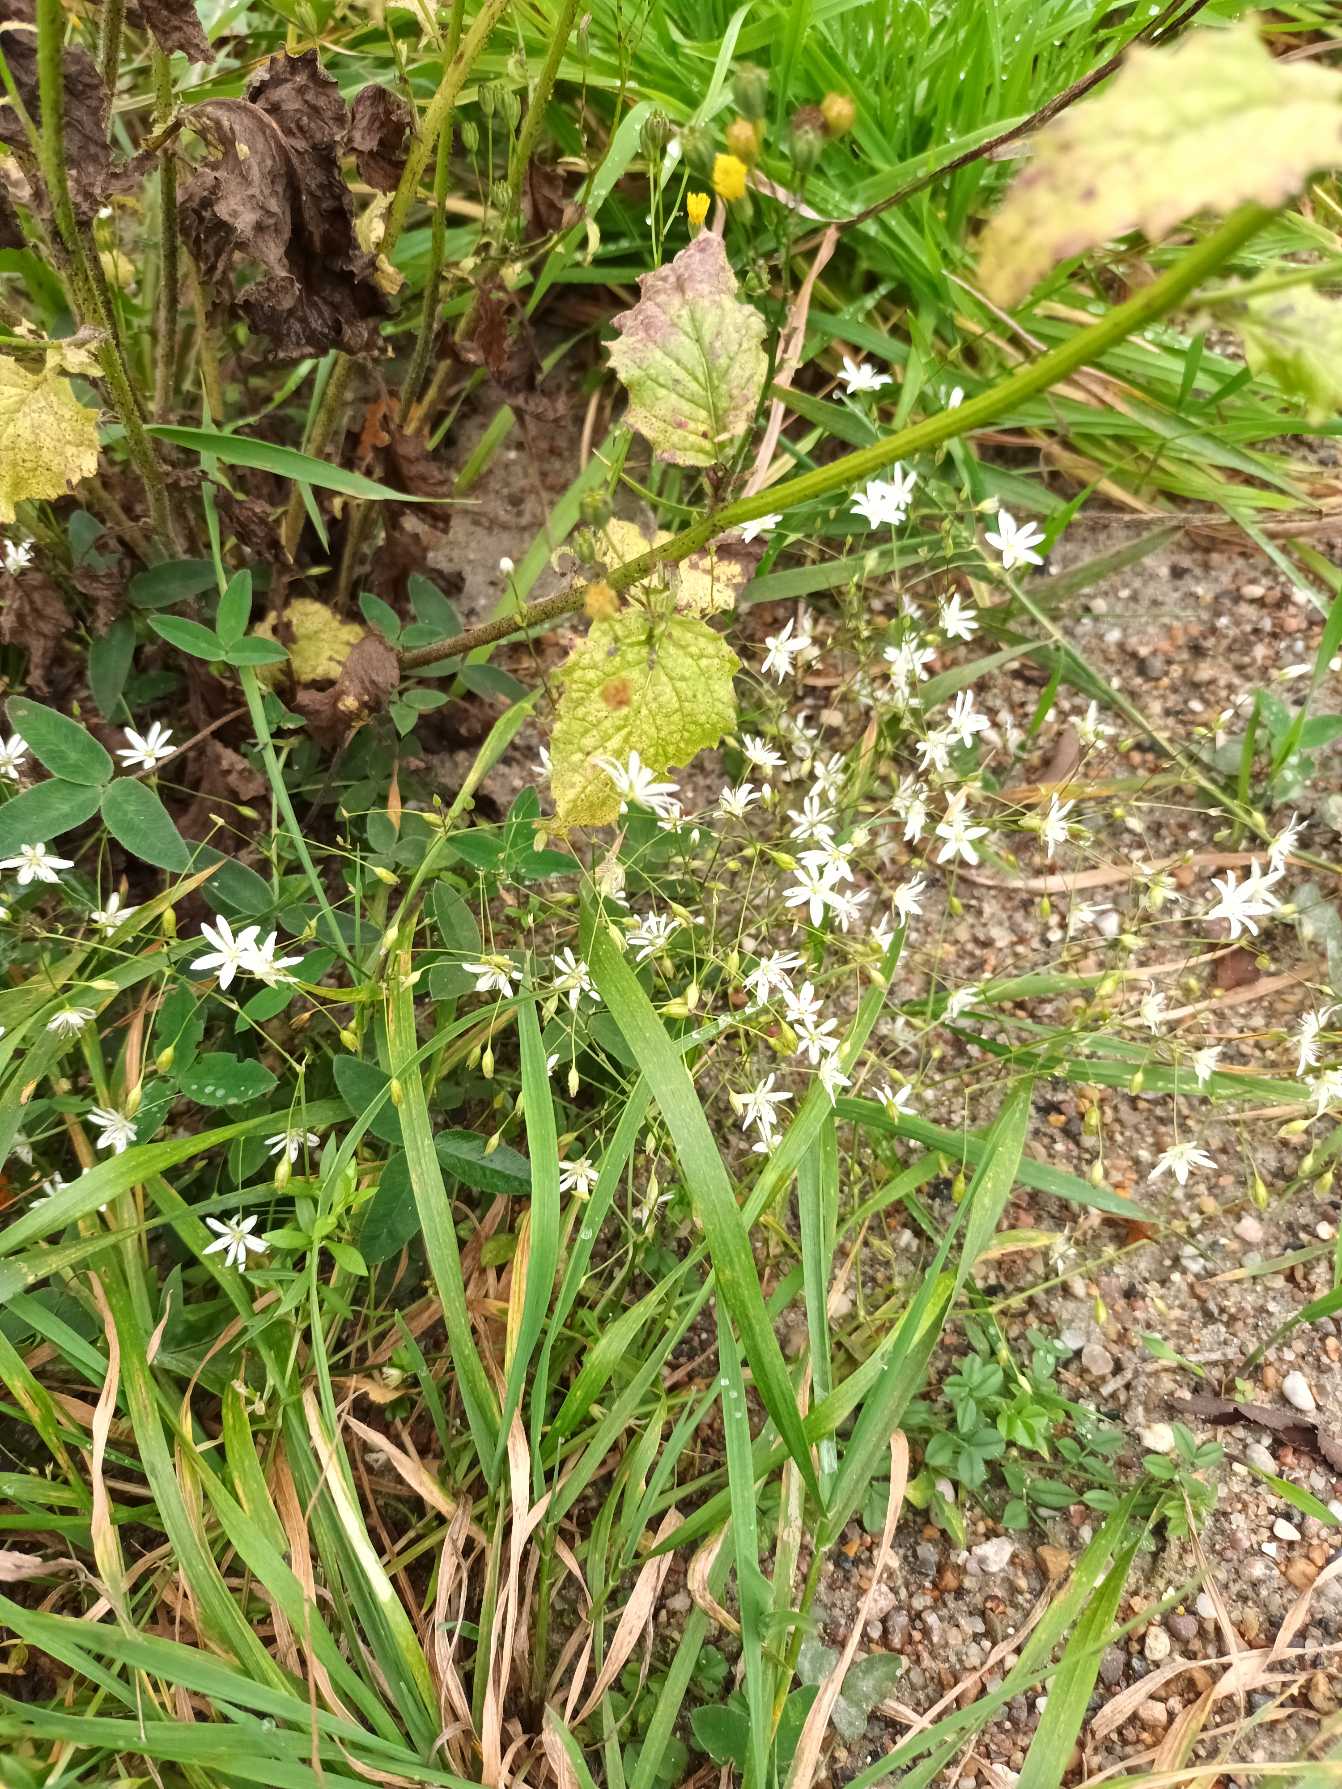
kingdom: Plantae
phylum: Tracheophyta
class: Magnoliopsida
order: Caryophyllales
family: Caryophyllaceae
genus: Stellaria
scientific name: Stellaria graminea
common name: Græsbladet fladstjerne
